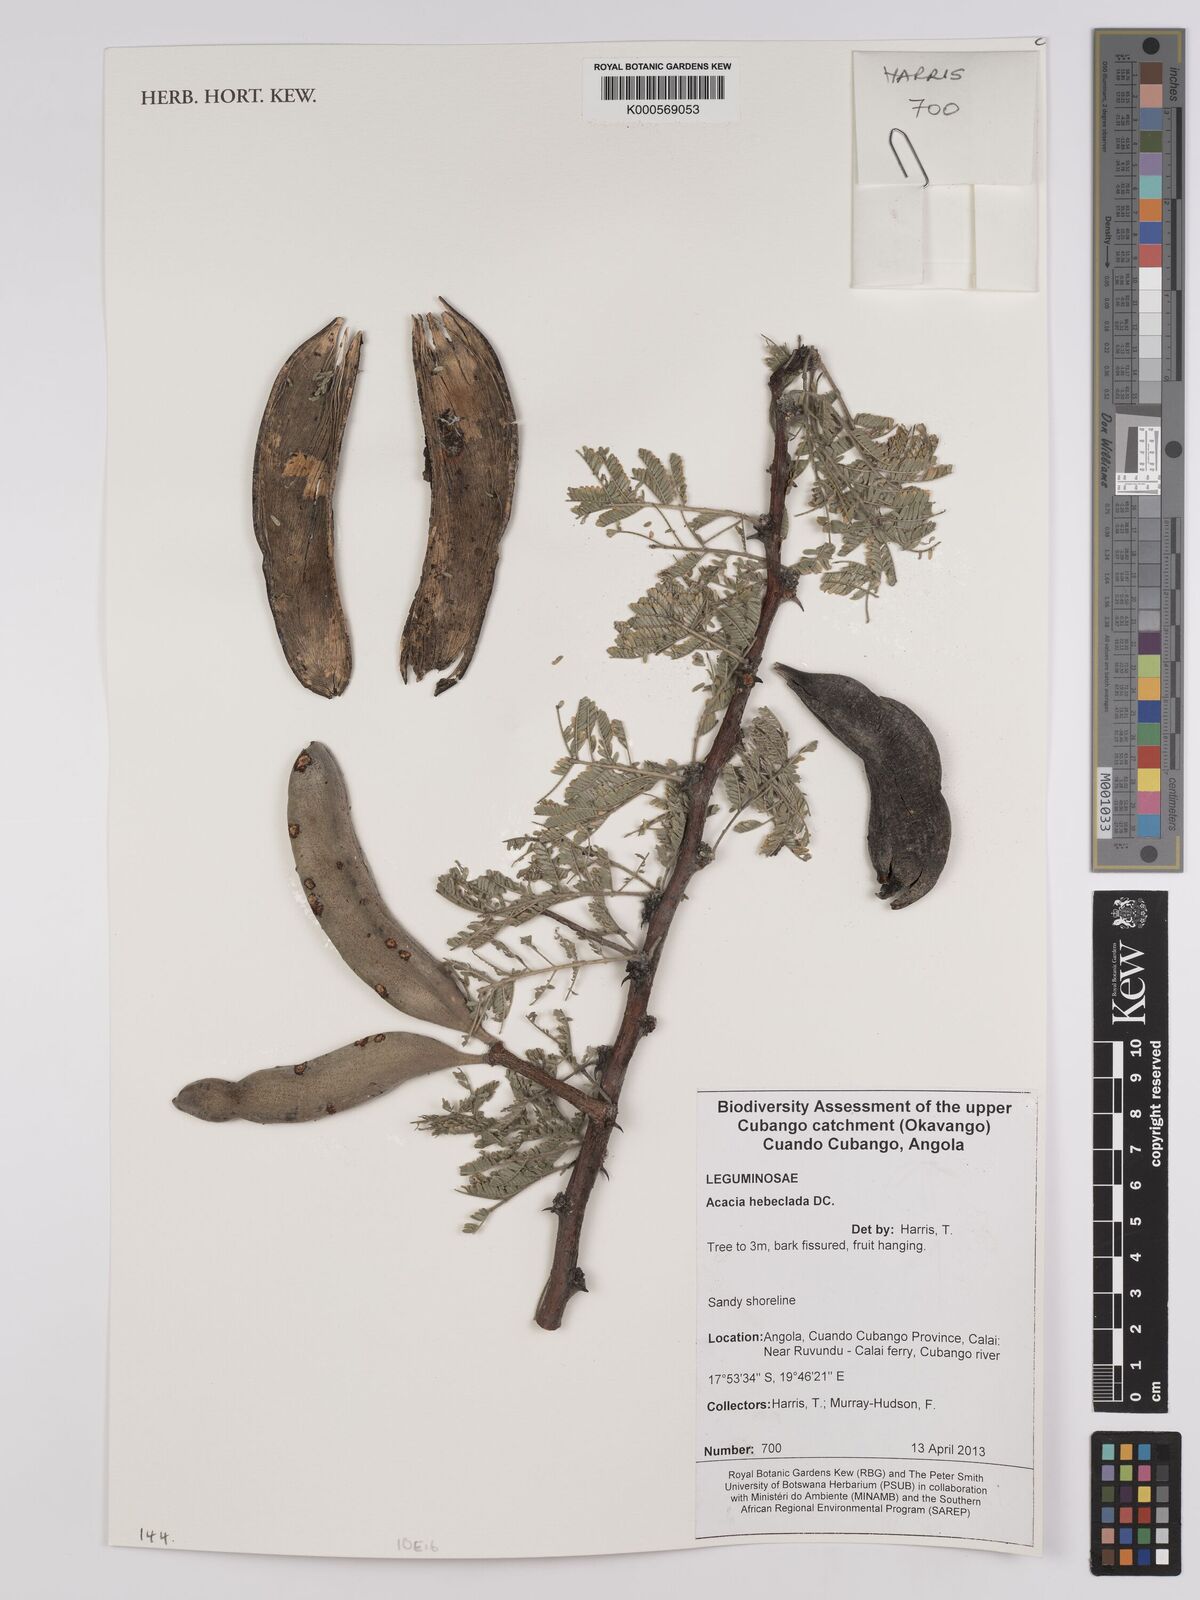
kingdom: Plantae
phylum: Tracheophyta
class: Magnoliopsida
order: Fabales
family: Fabaceae
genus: Vachellia
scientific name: Vachellia hebeclada
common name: Candle thorn
